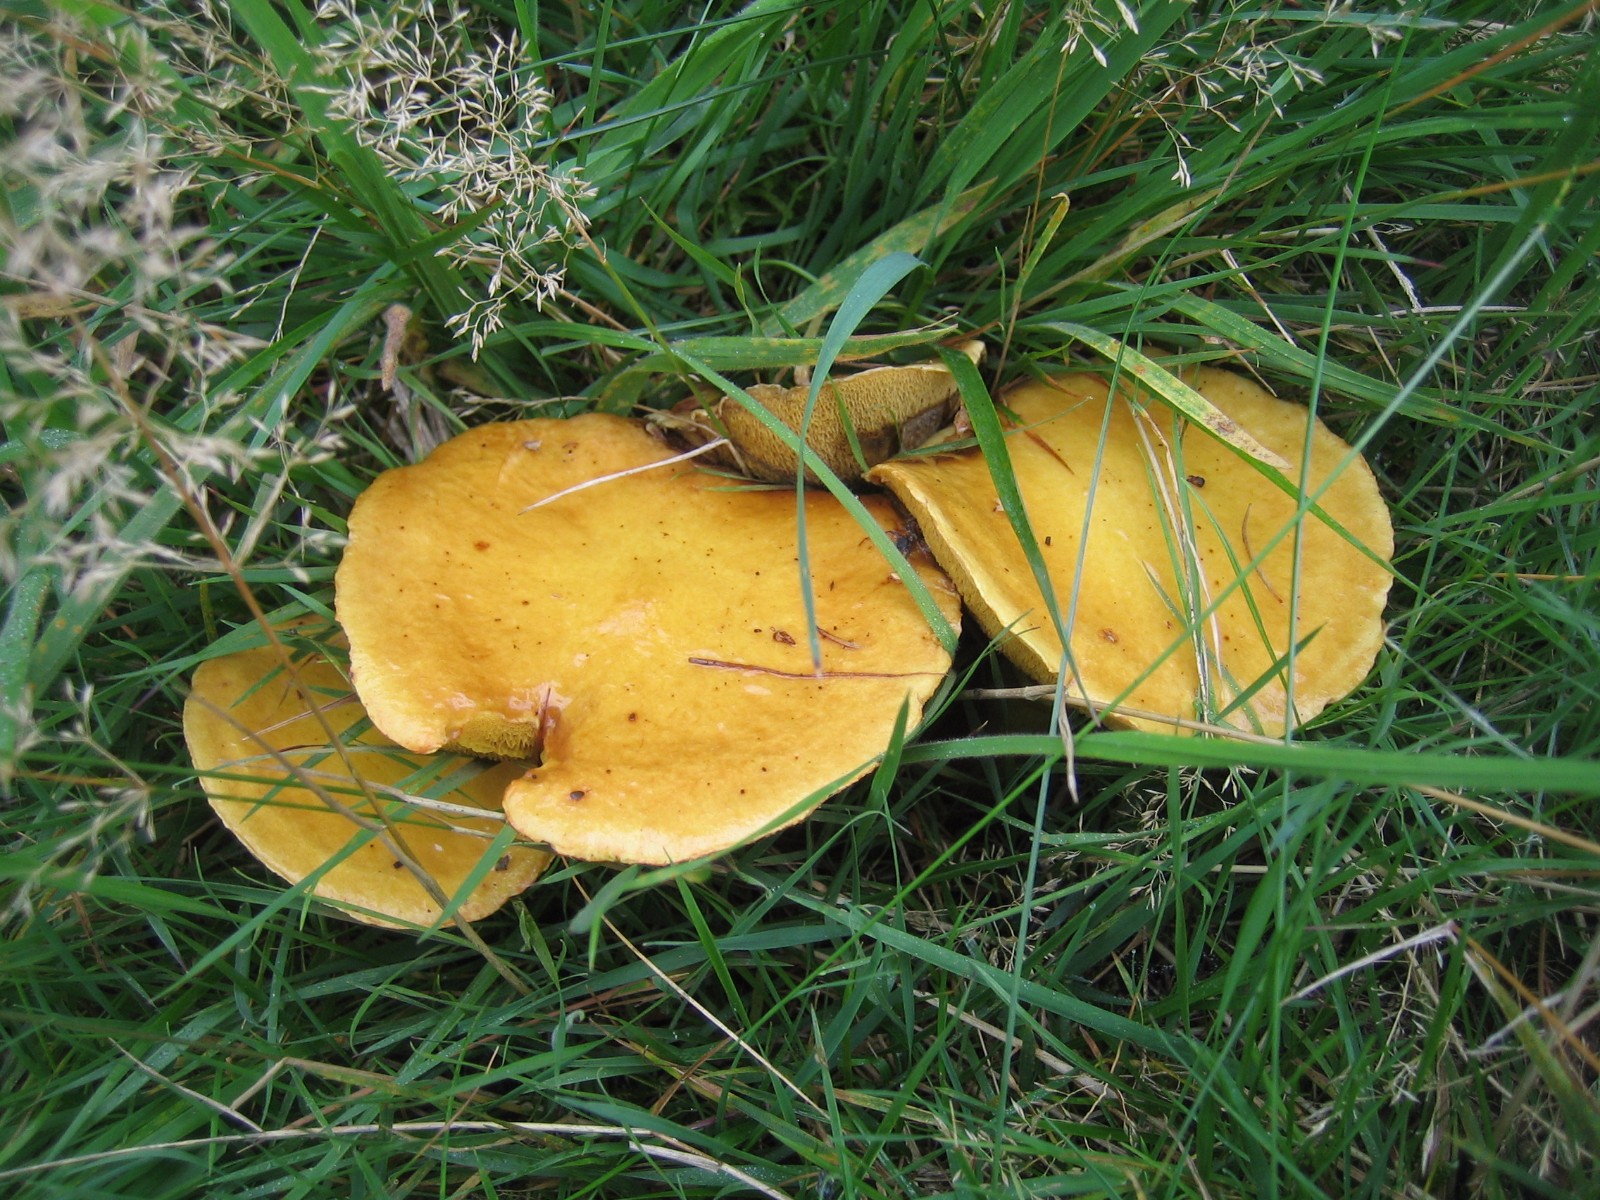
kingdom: Fungi
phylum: Basidiomycota
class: Agaricomycetes
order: Boletales
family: Suillaceae
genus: Suillus
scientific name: Suillus grevillei
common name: lærke-slimrørhat
